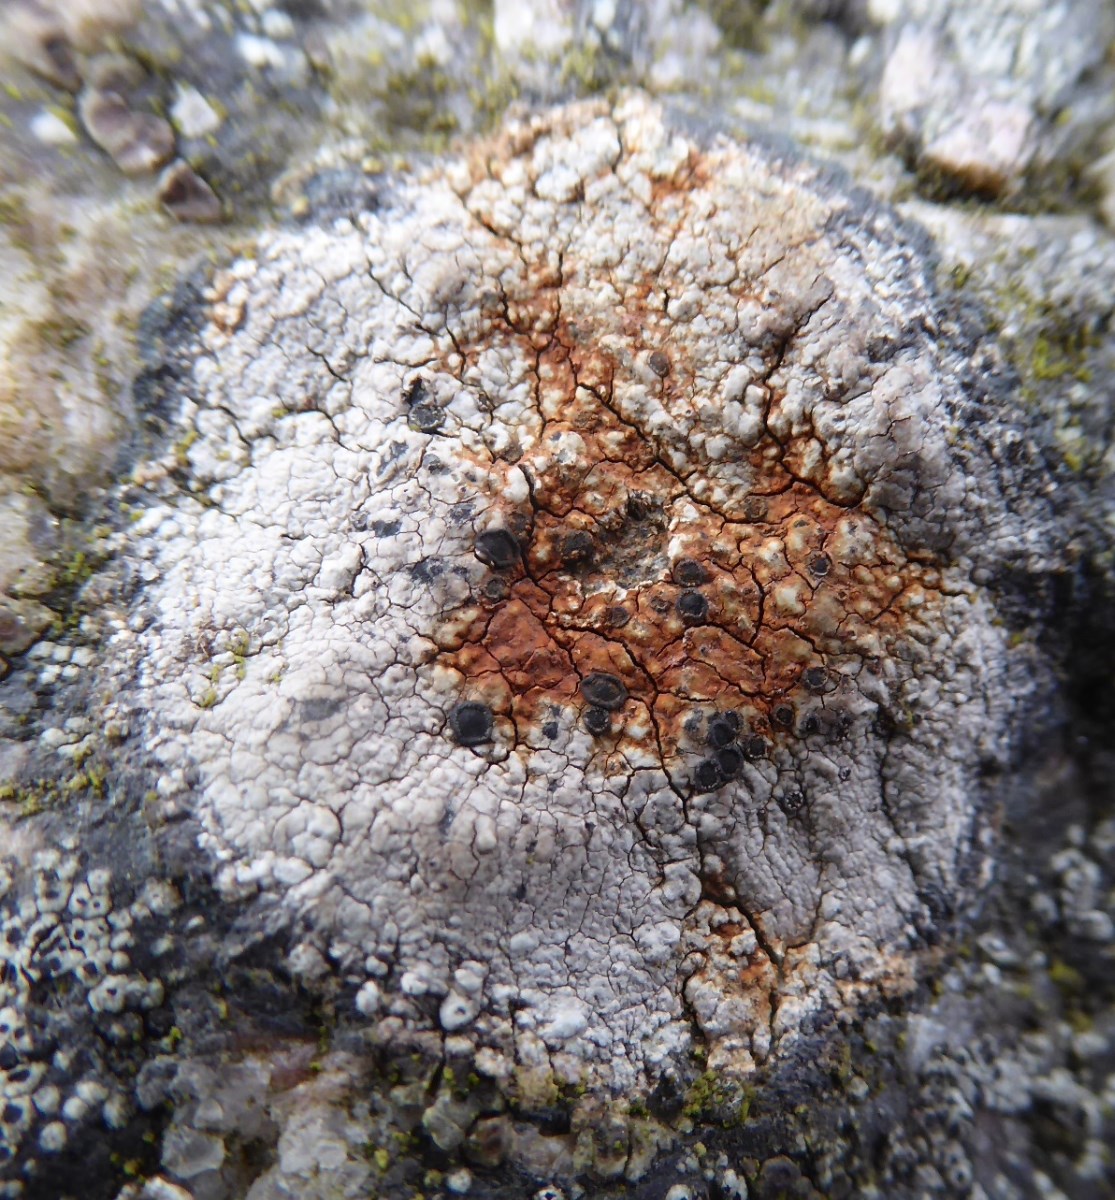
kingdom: Fungi
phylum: Ascomycota
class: Lecanoromycetes
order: Lecideales
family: Lecideaceae
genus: Lecidea
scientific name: Lecidea
